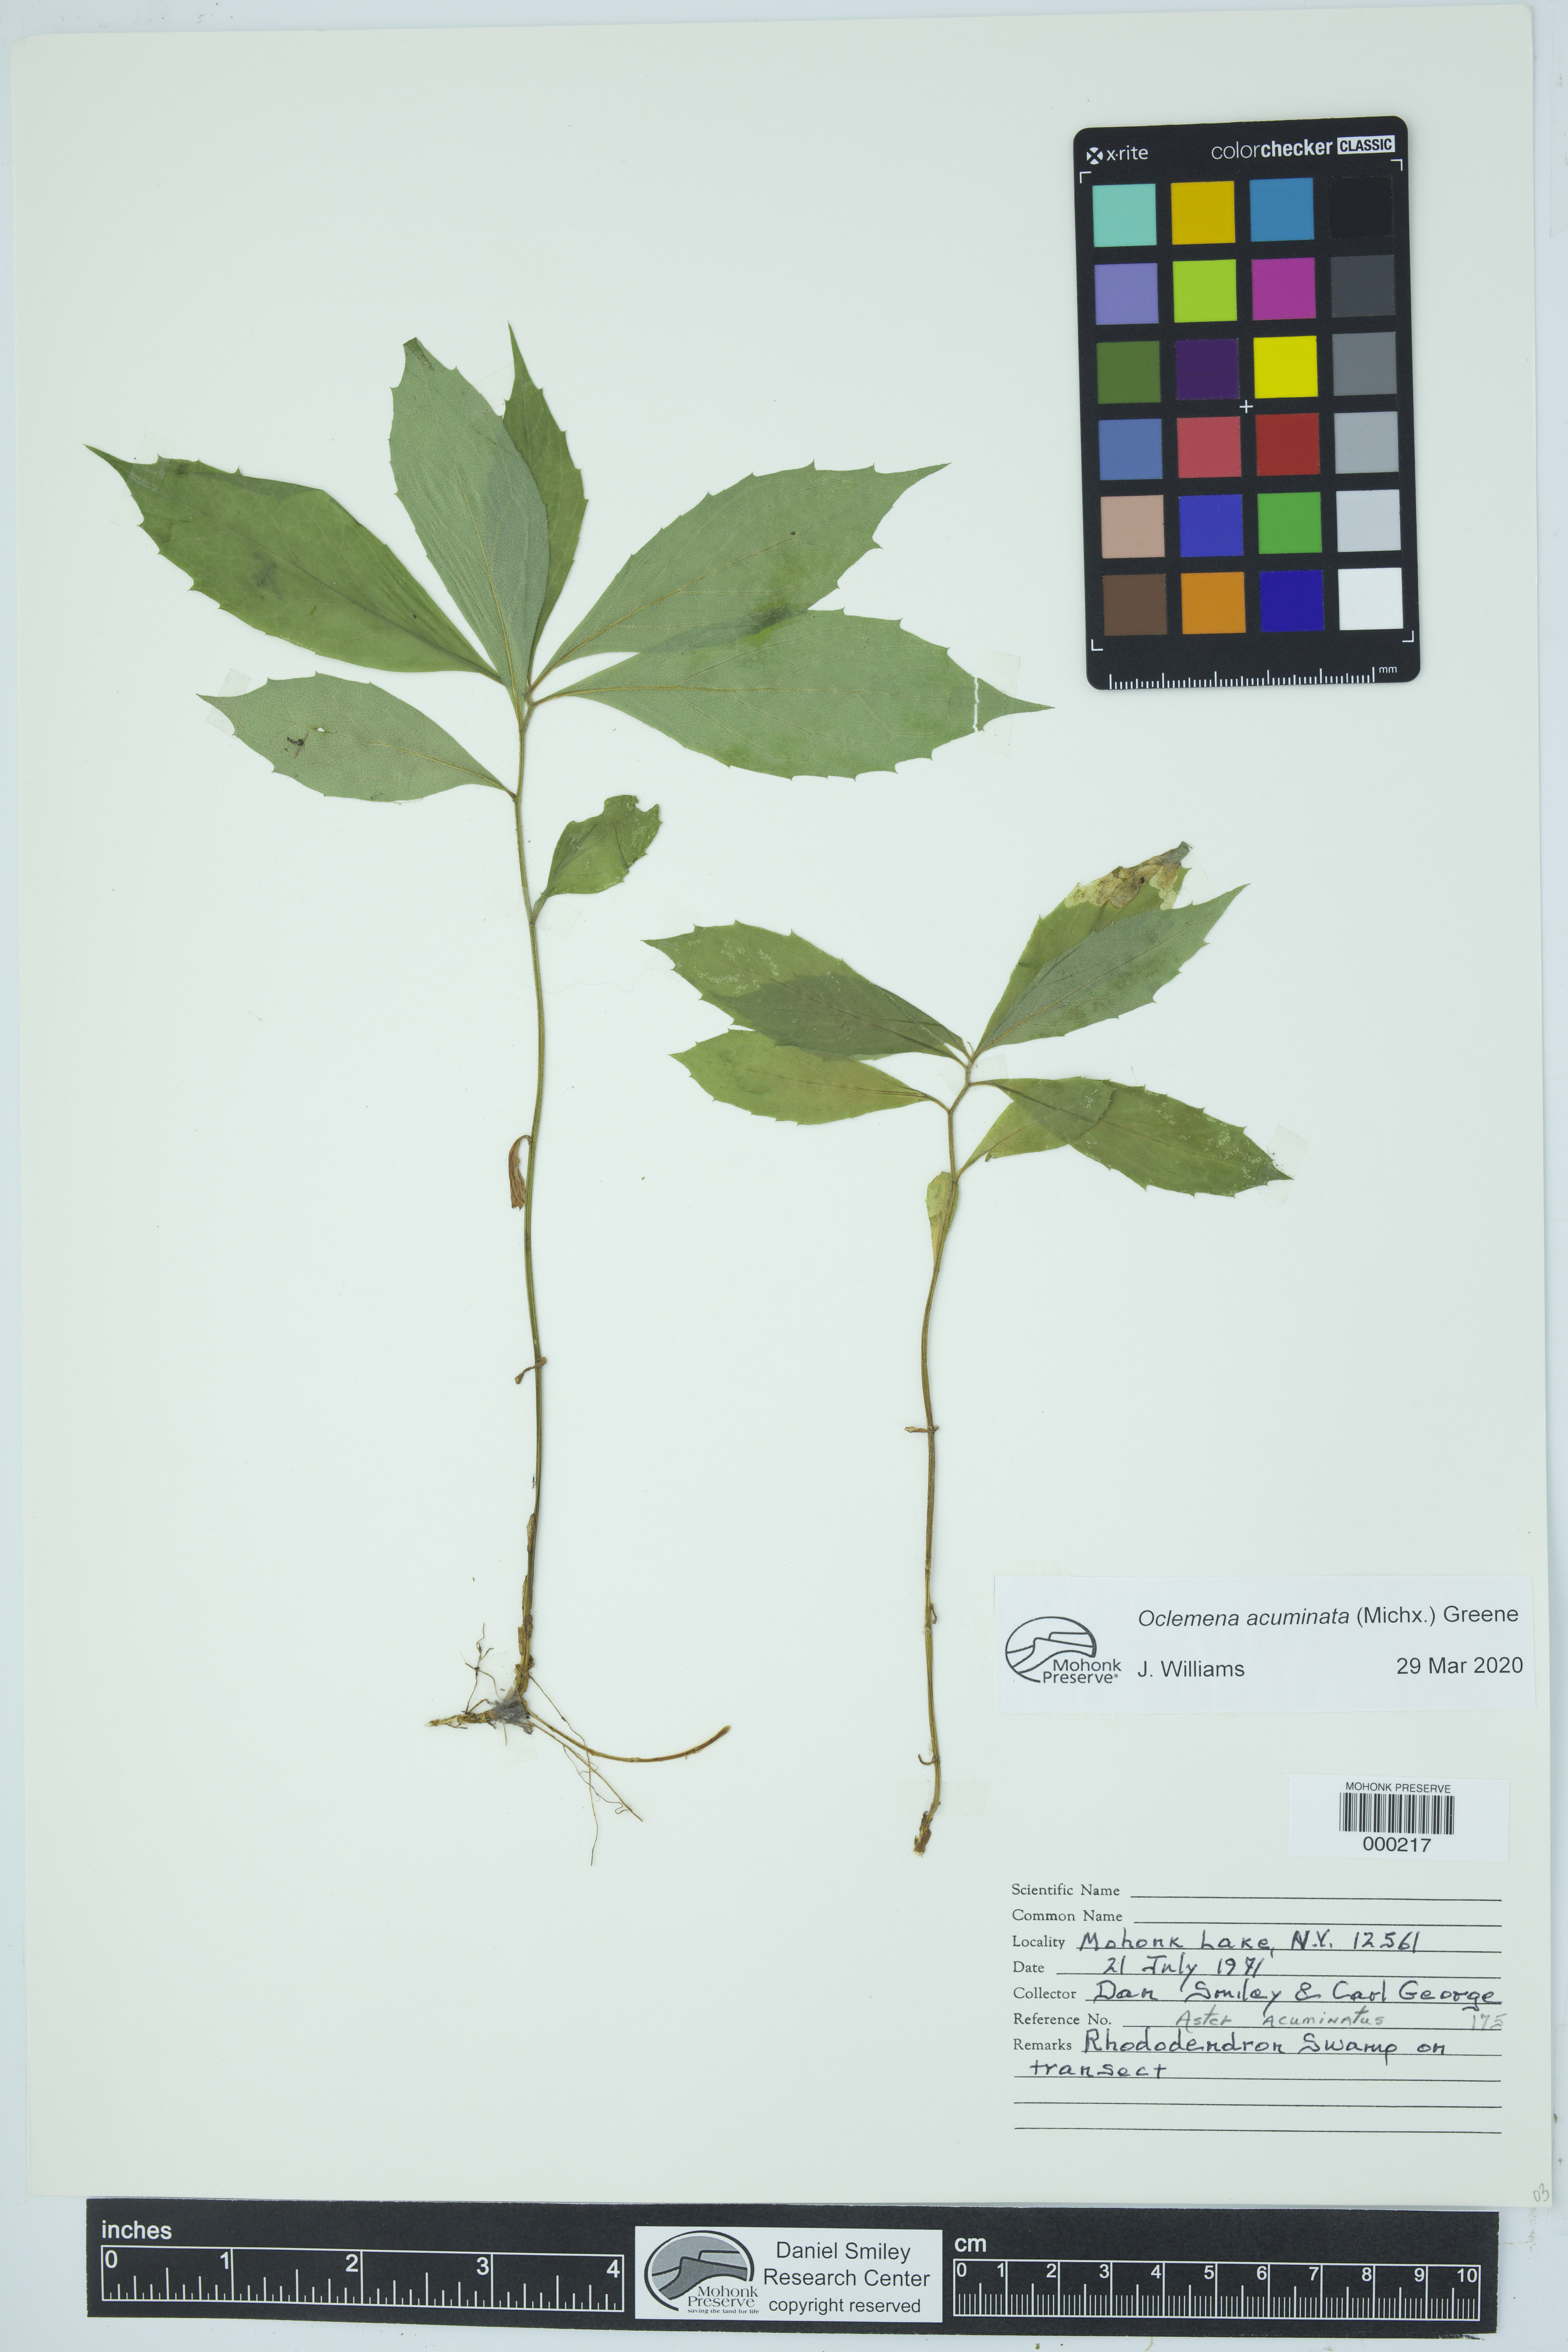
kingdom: Plantae
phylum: Tracheophyta
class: Magnoliopsida
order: Asterales
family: Asteraceae
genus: Oclemena
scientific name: Oclemena acuminata
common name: Mountain aster
